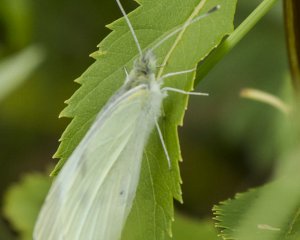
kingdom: Animalia
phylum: Arthropoda
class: Insecta
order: Lepidoptera
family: Pieridae
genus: Pieris
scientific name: Pieris rapae
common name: Cabbage White
